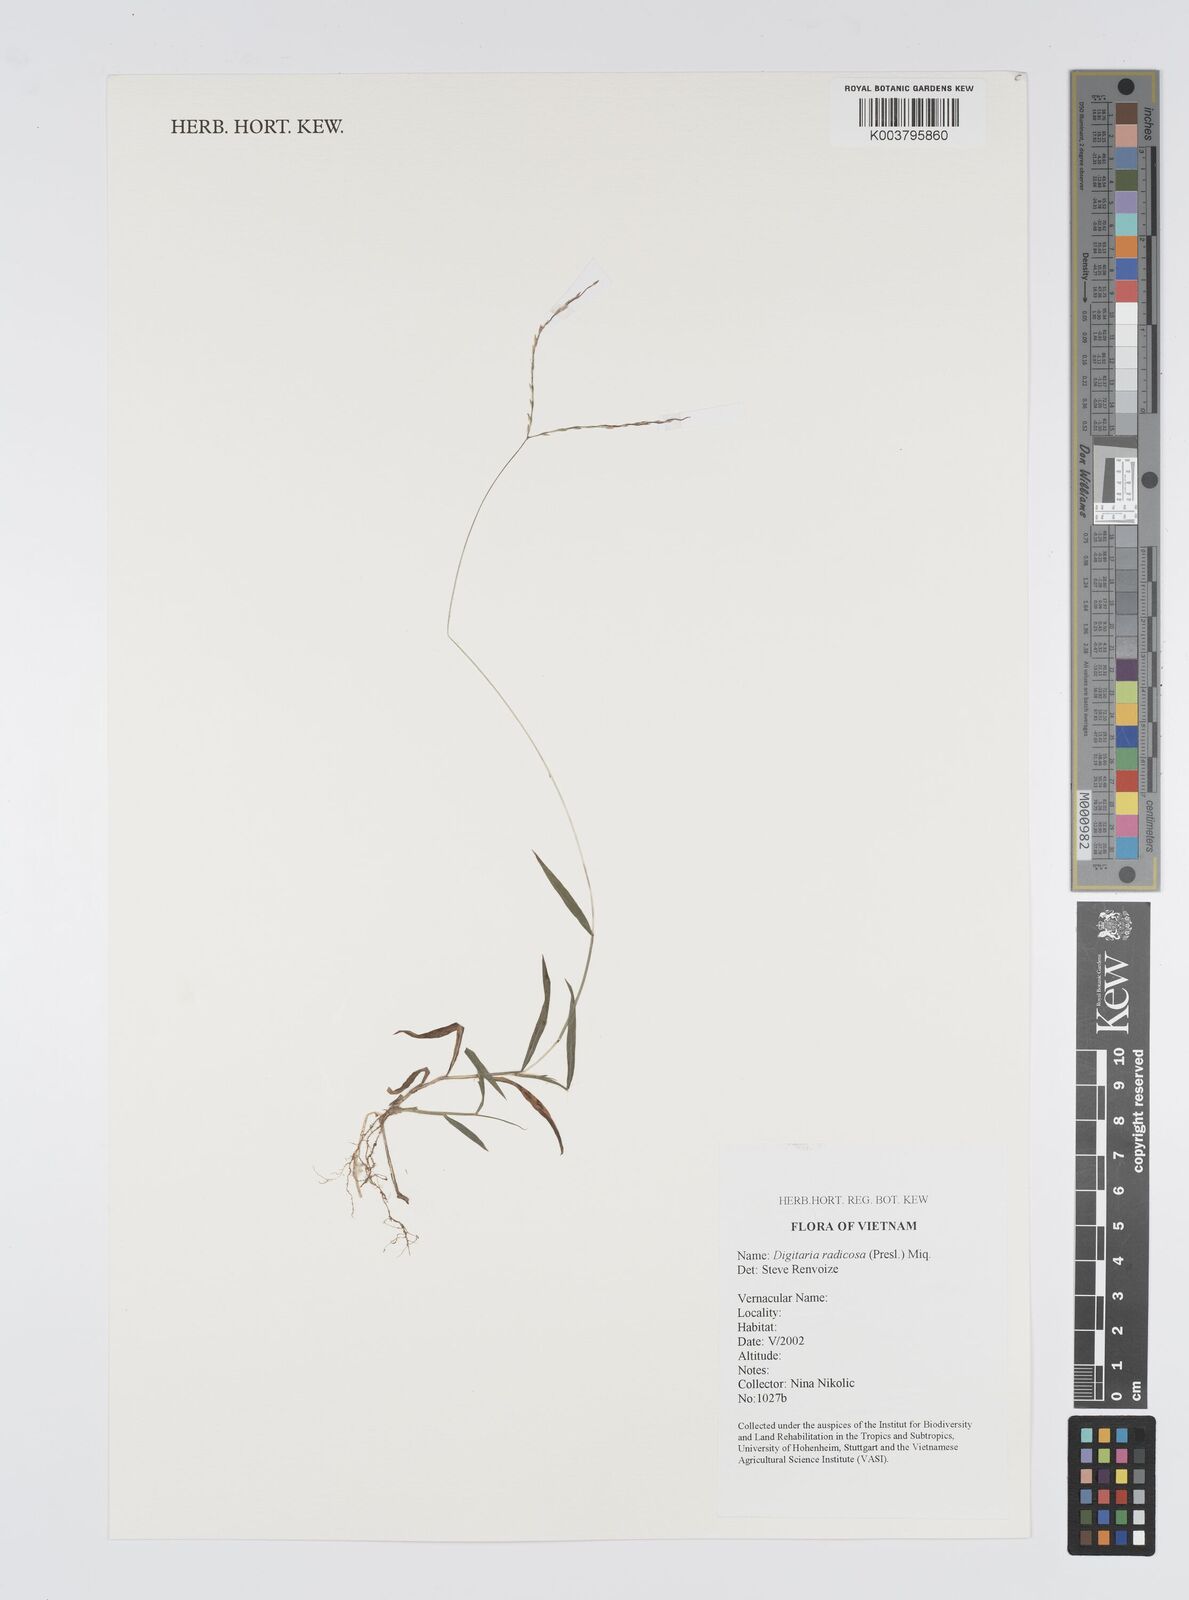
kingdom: Plantae
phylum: Tracheophyta
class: Liliopsida
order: Poales
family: Poaceae
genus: Digitaria
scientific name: Digitaria radicosa
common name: Trailing crabgrass
